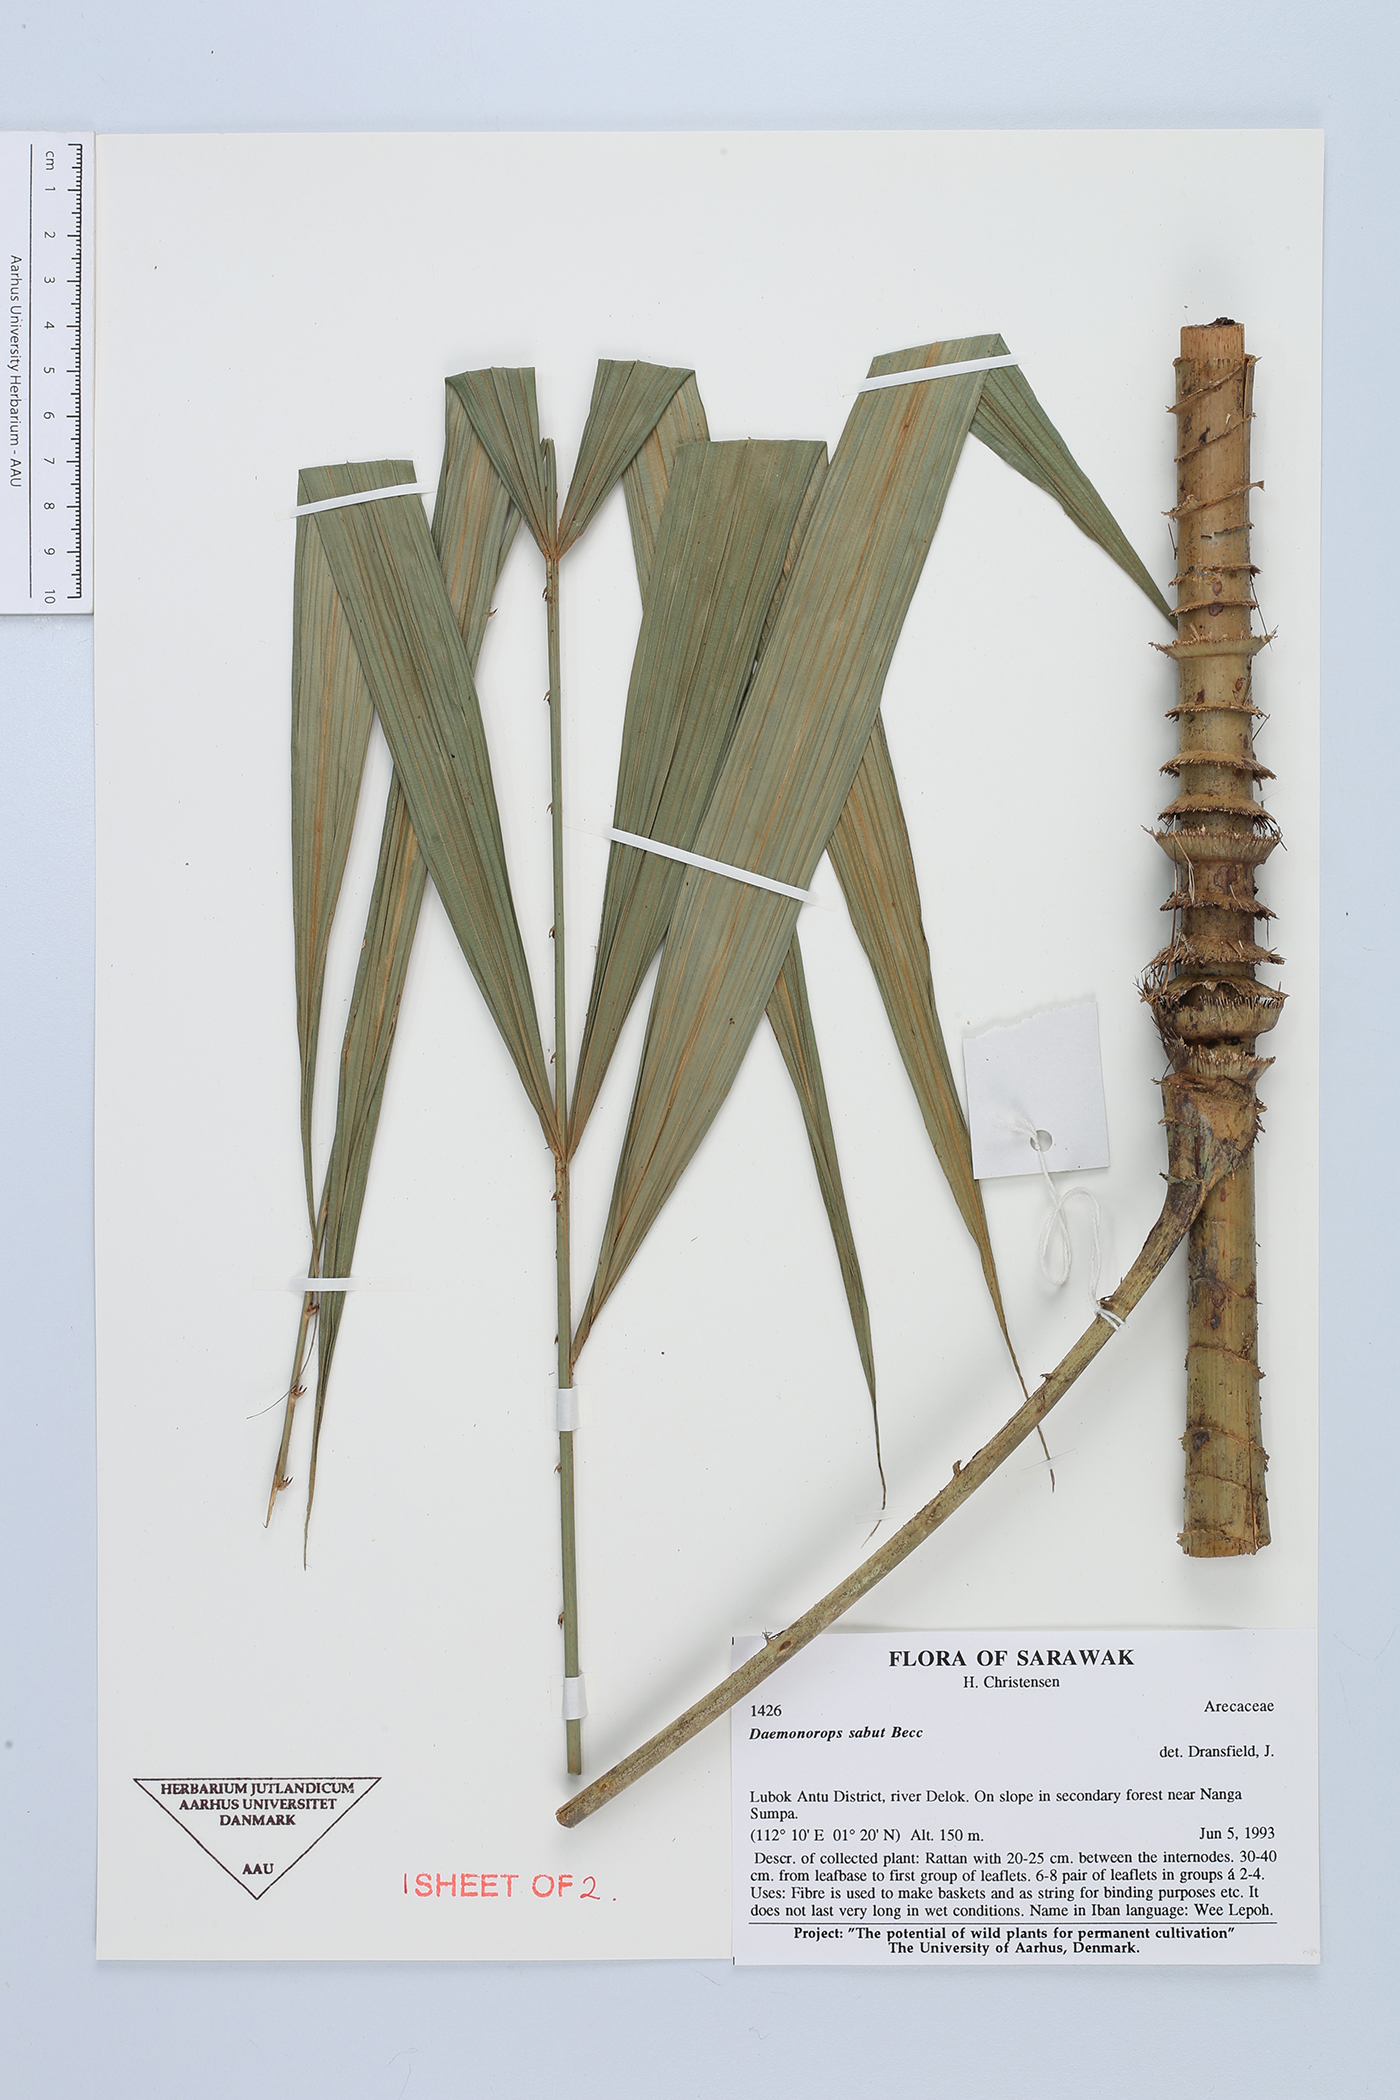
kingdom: Plantae
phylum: Tracheophyta
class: Liliopsida
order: Arecales
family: Arecaceae
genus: Calamus
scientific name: Calamus crinitus
